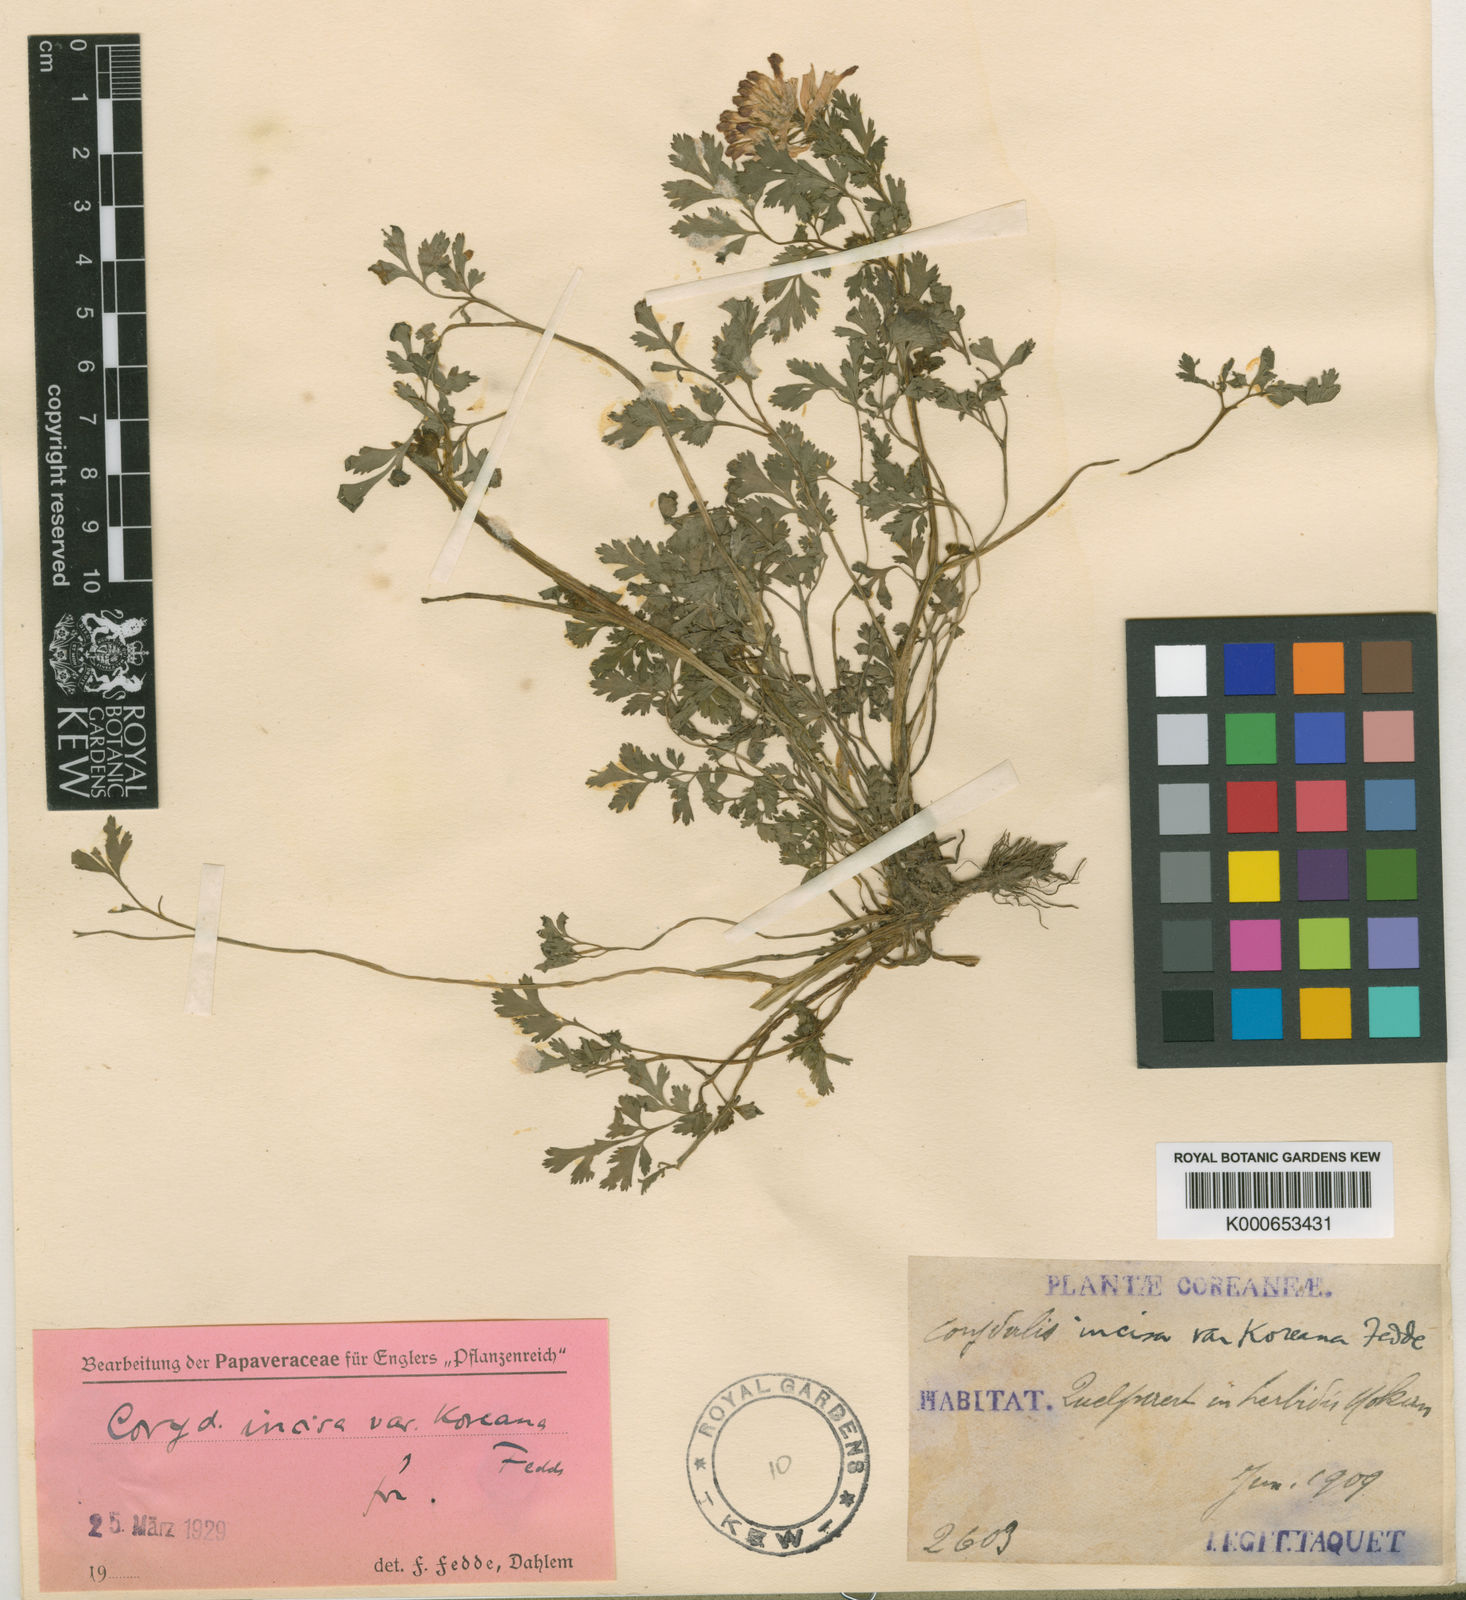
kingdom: Plantae
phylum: Tracheophyta
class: Magnoliopsida
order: Ranunculales
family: Papaveraceae
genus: Corydalis
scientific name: Corydalis incisa
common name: Incised fumewort
